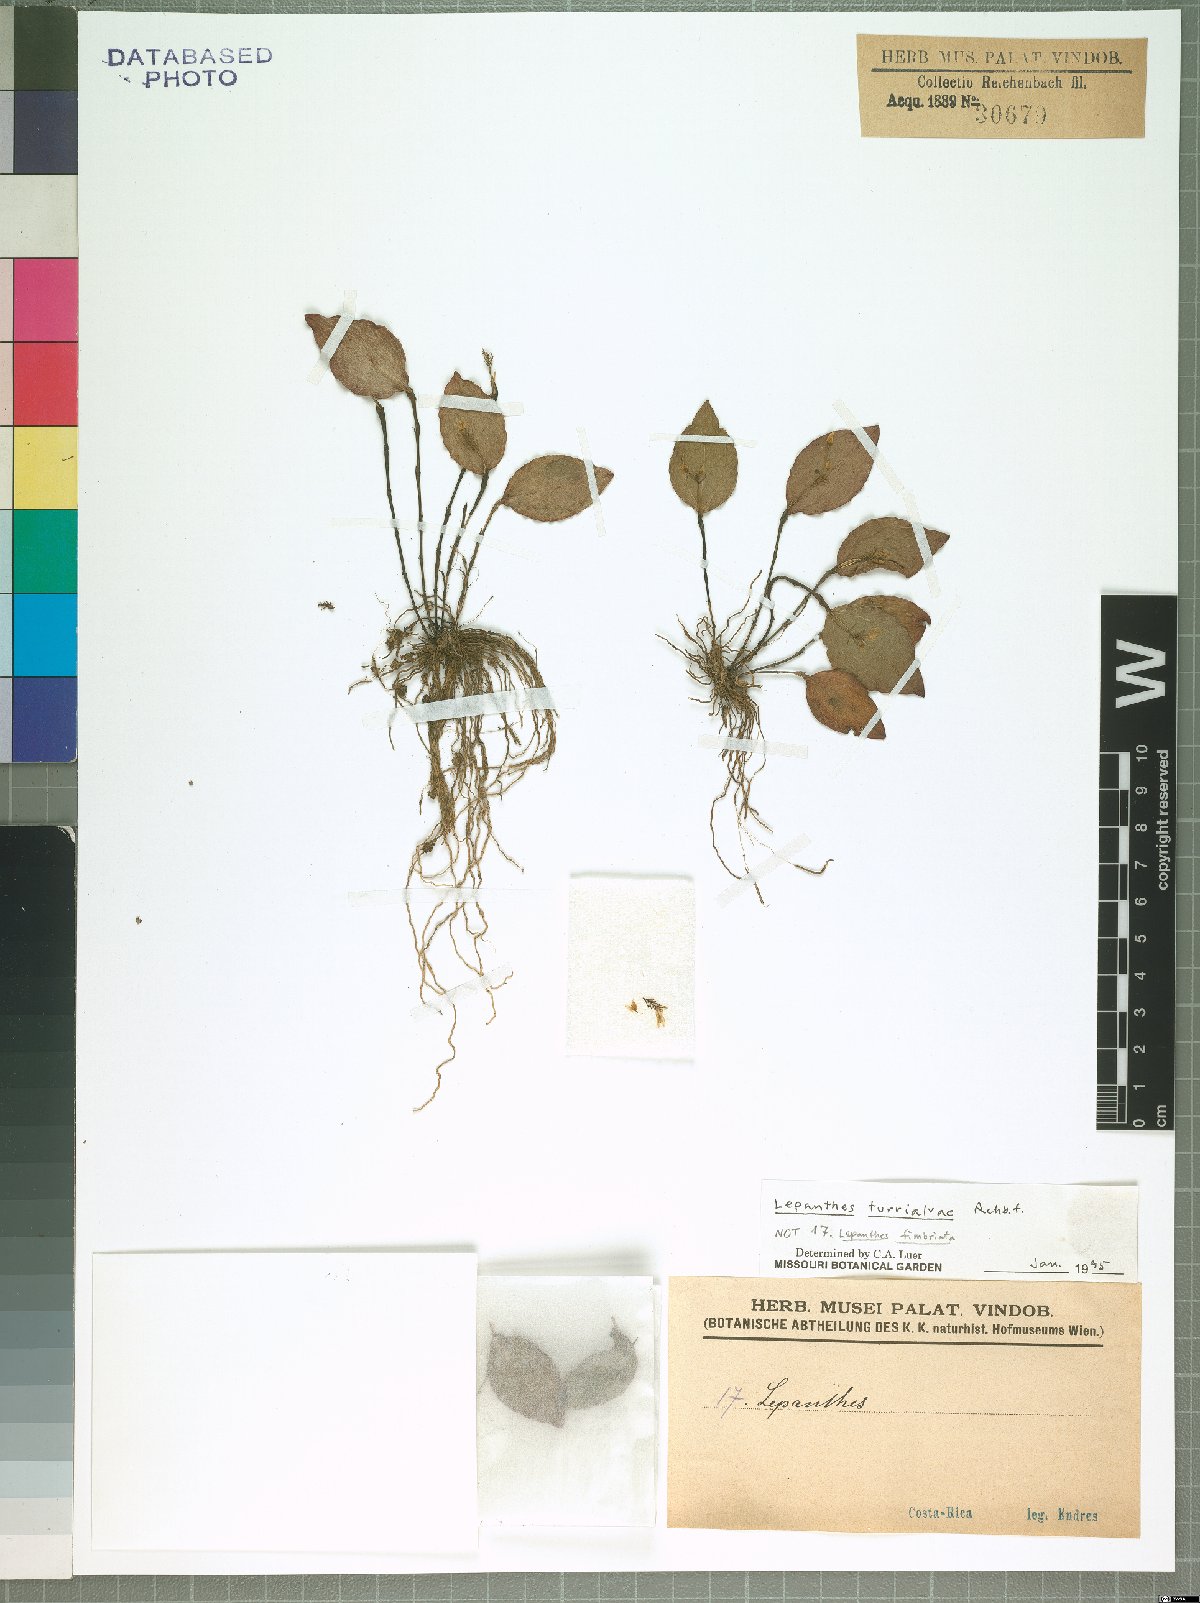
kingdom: Plantae
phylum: Tracheophyta
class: Liliopsida
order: Asparagales
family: Orchidaceae
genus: Lepanthes
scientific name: Lepanthes turialvae
